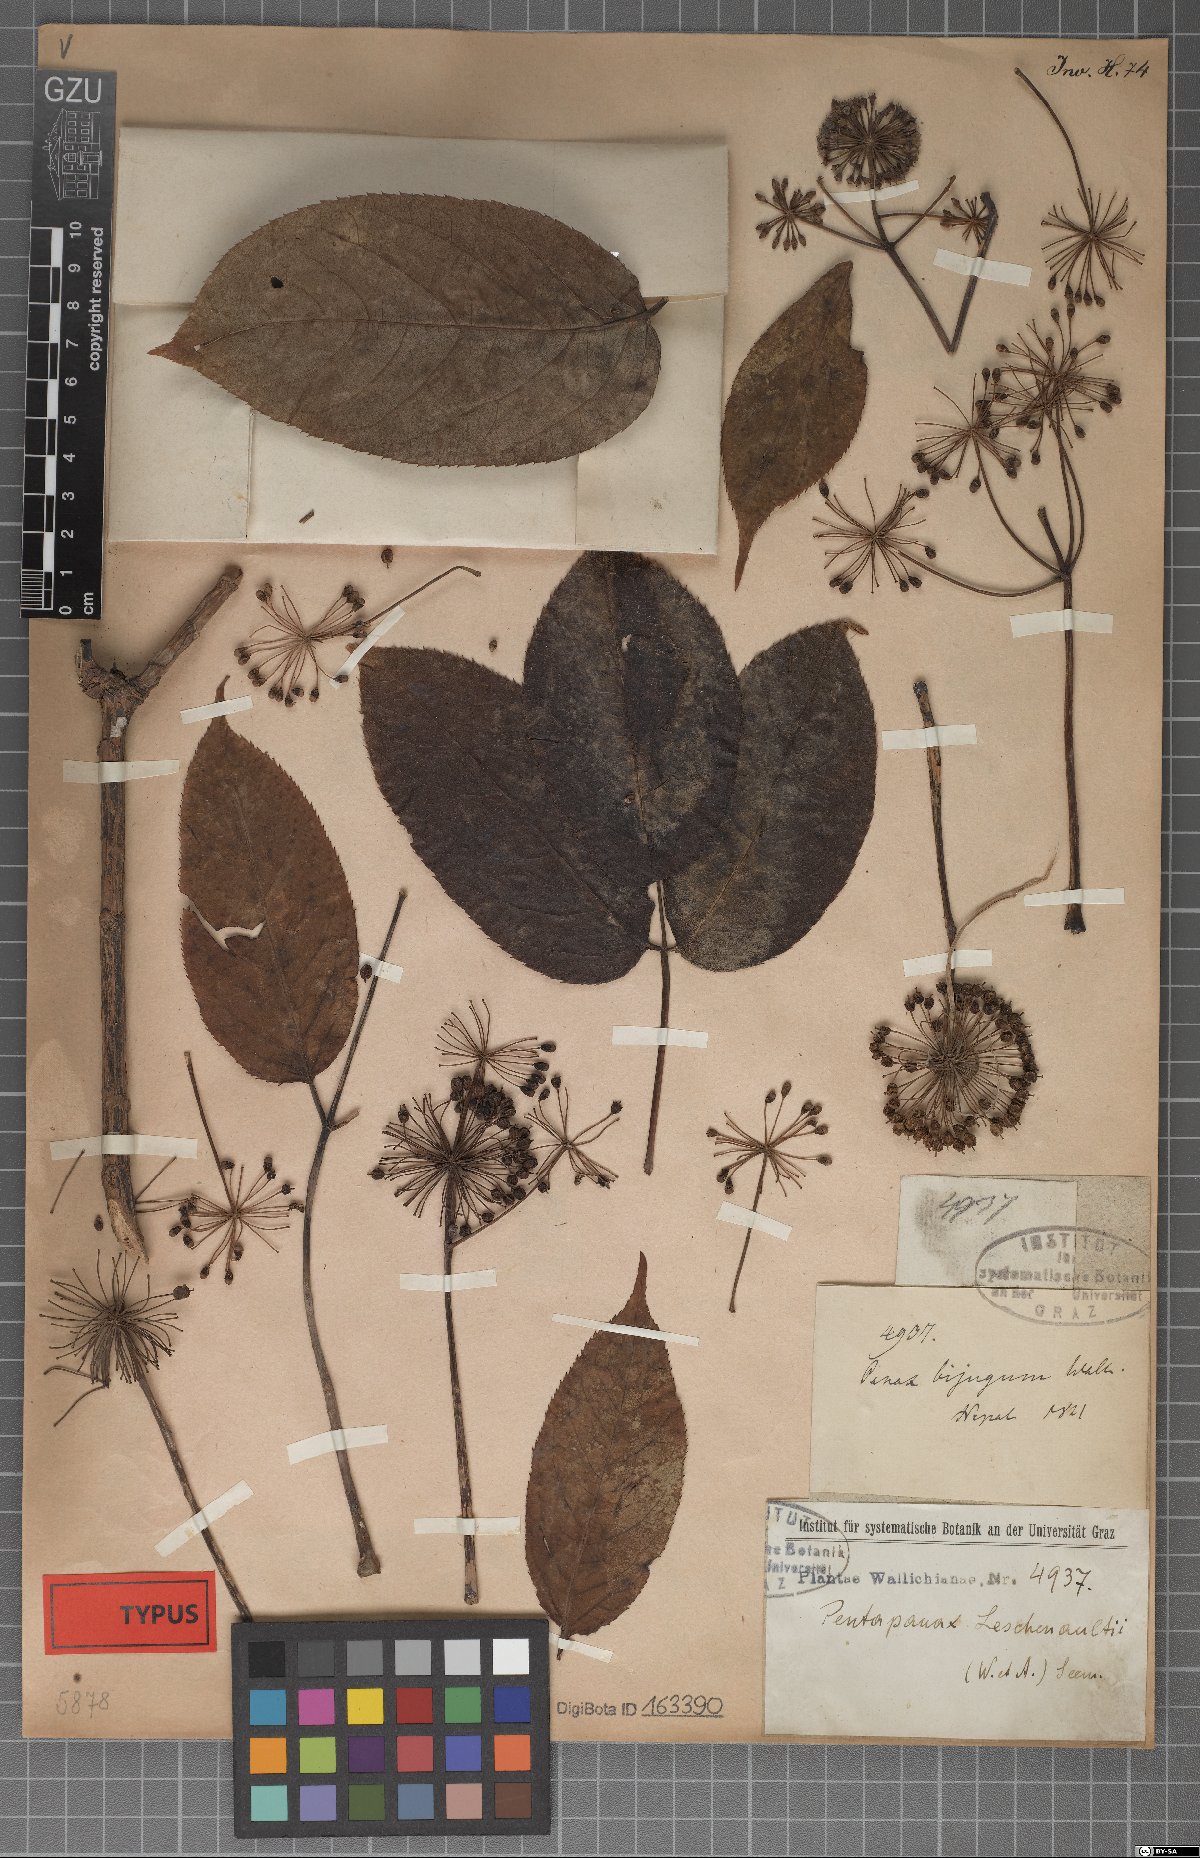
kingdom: Plantae
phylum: Tracheophyta
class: Magnoliopsida
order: Apiales
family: Araliaceae
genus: Aralia
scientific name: Aralia leschenaultii
